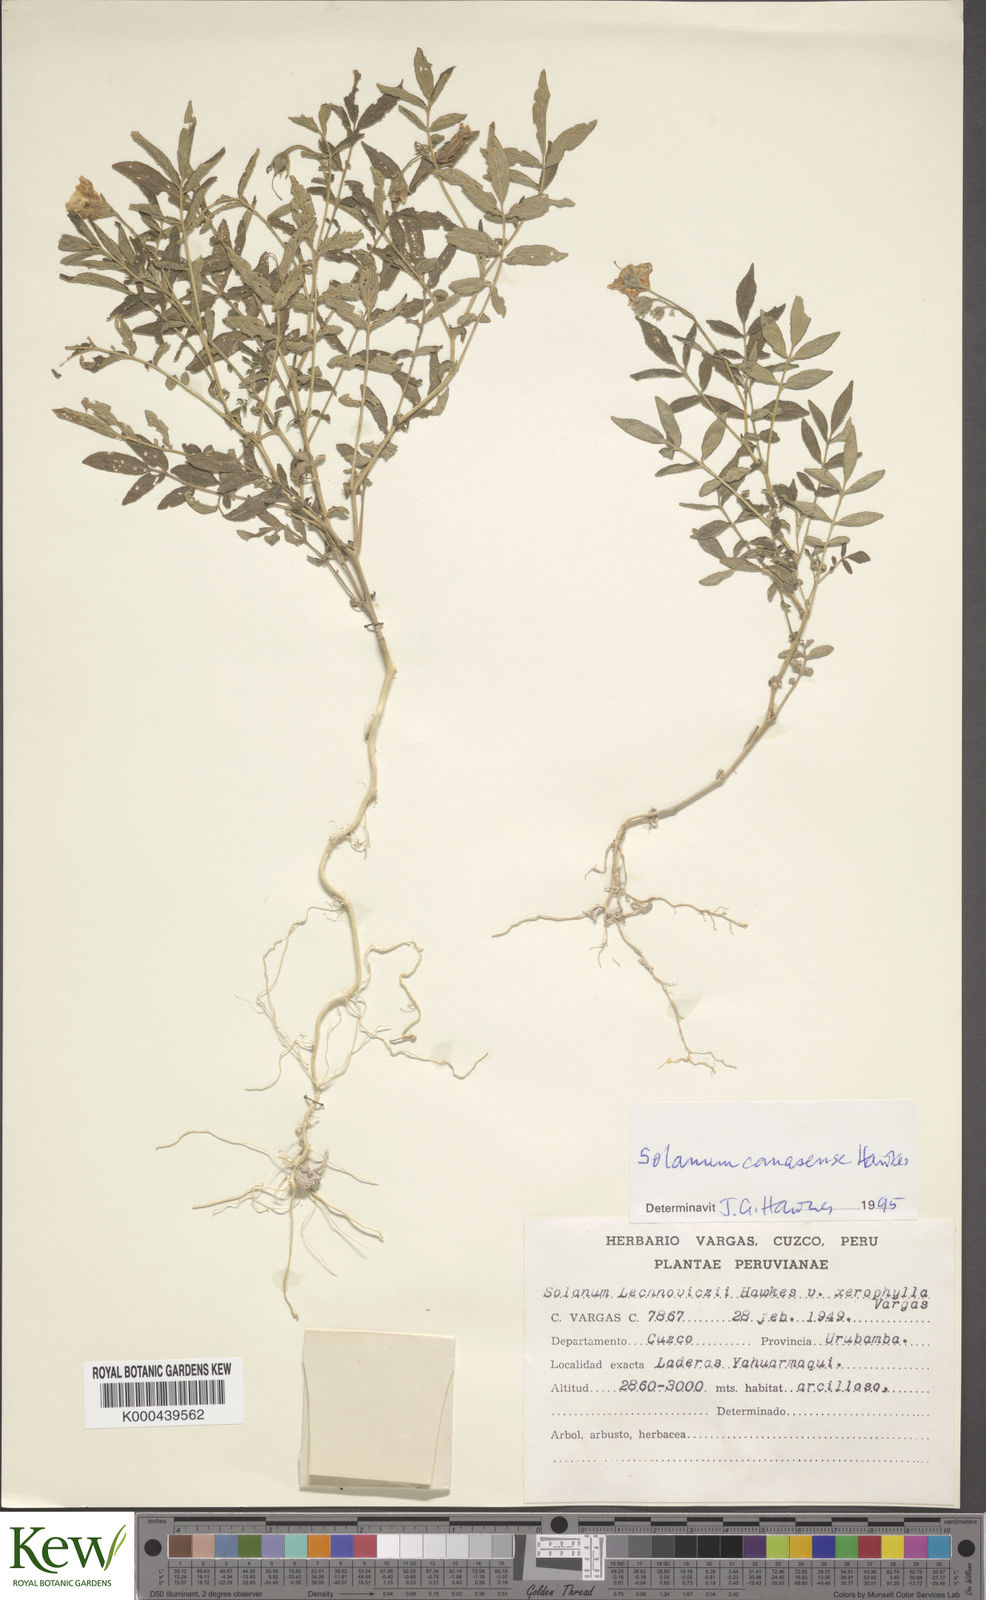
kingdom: Plantae
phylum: Tracheophyta
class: Magnoliopsida
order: Solanales
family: Solanaceae
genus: Solanum
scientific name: Solanum candolleanum
